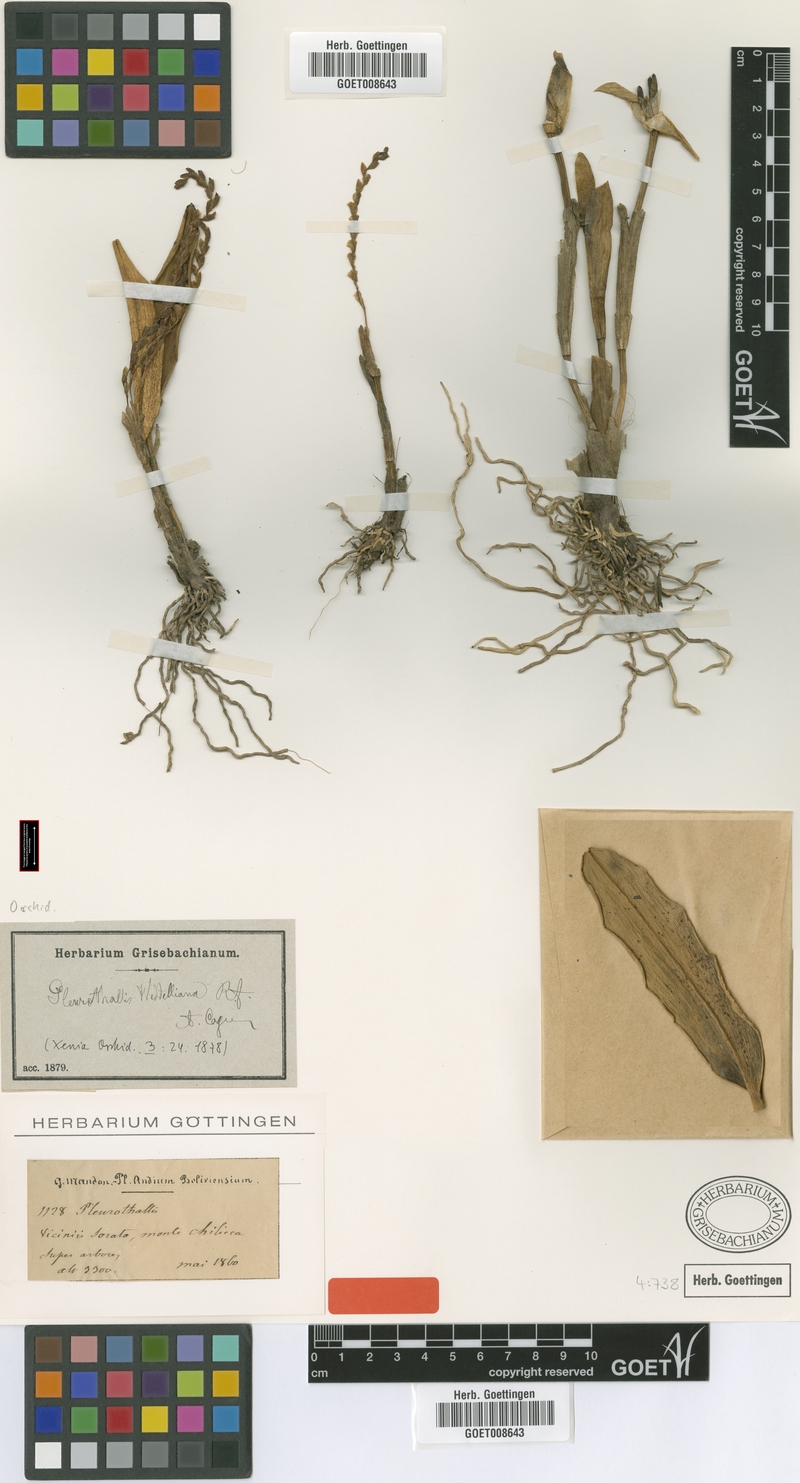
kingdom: Plantae
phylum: Tracheophyta
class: Liliopsida
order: Asparagales
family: Orchidaceae
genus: Stelis
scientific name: Stelis mandonii
